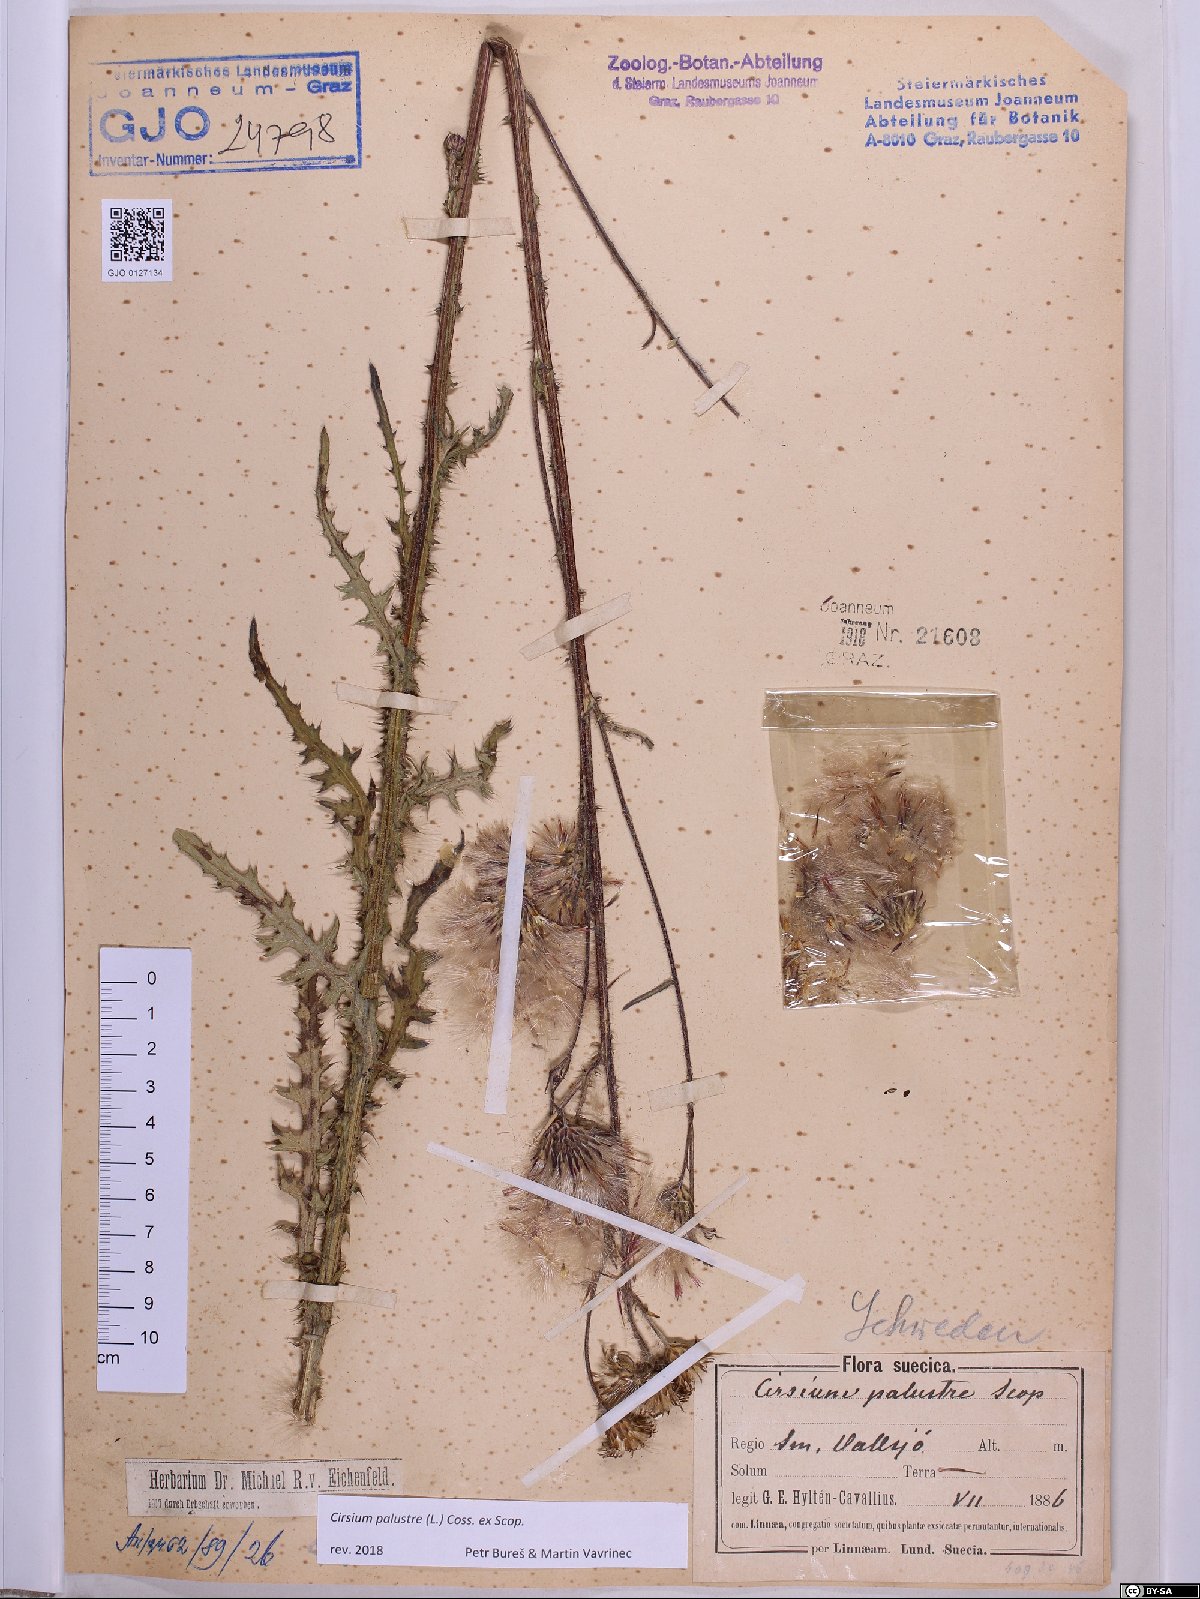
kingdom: Plantae
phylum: Tracheophyta
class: Magnoliopsida
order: Asterales
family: Asteraceae
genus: Cirsium
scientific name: Cirsium palustre
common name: Marsh thistle
